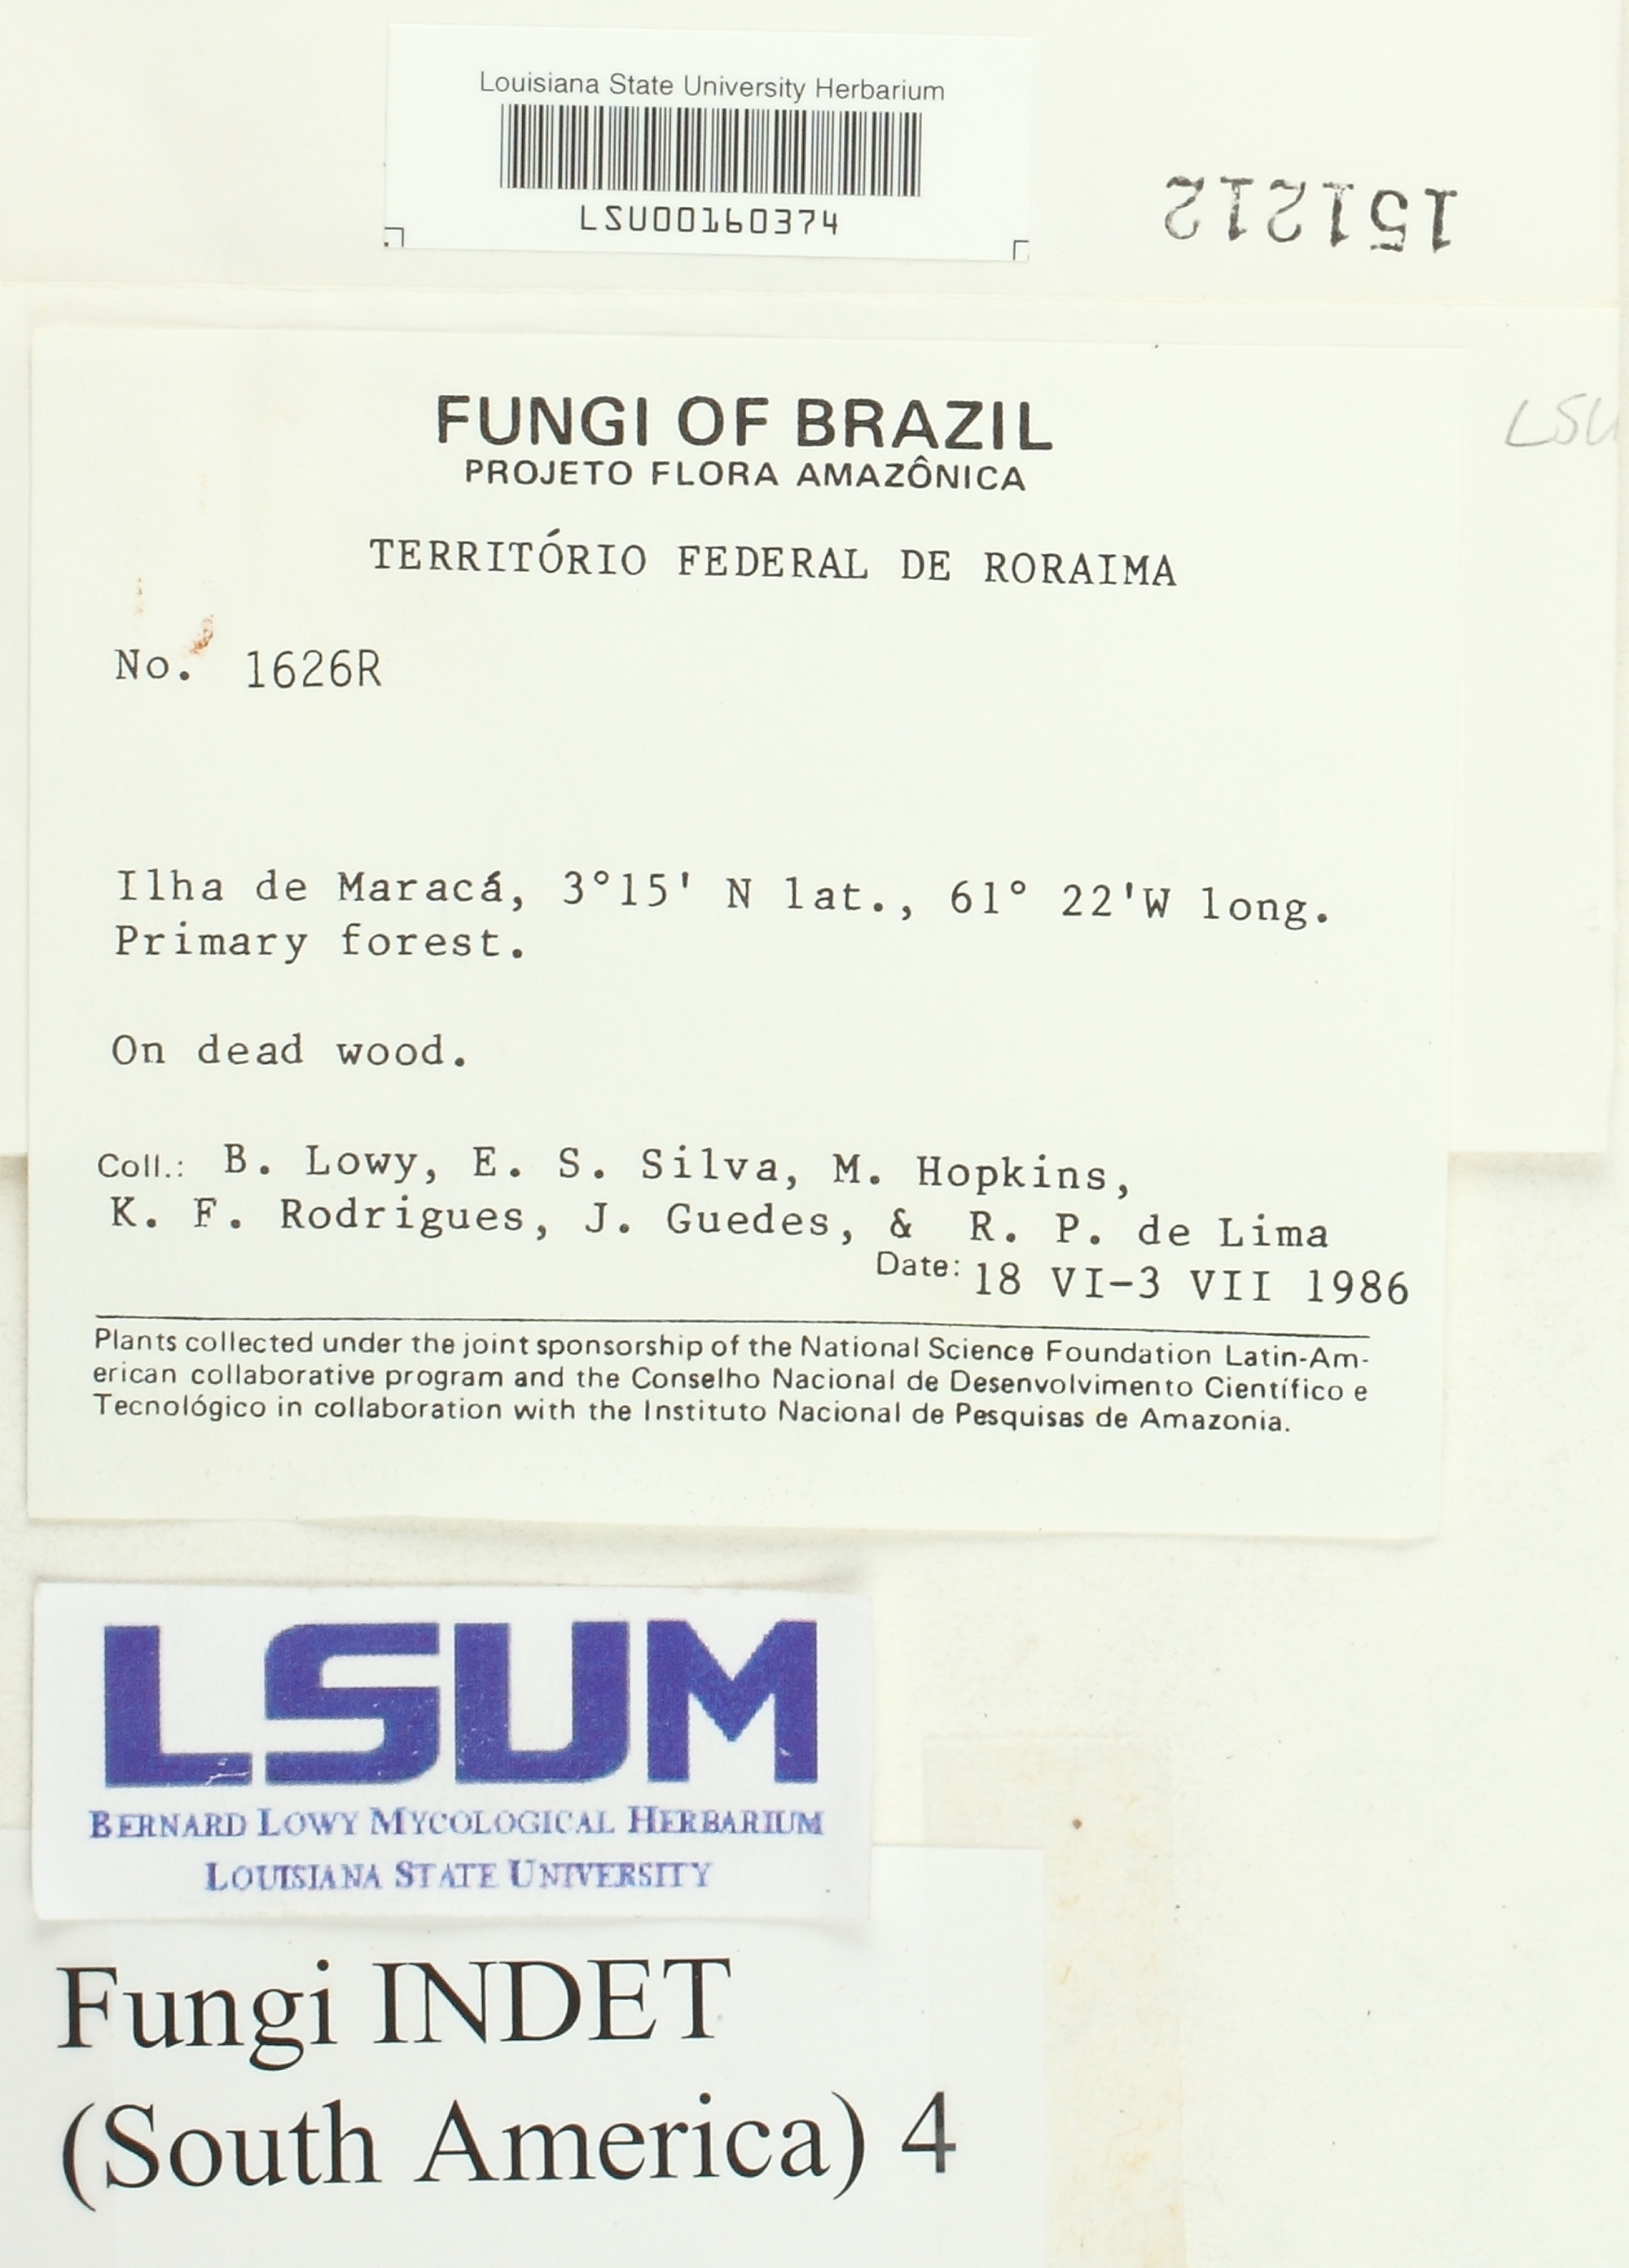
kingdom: Fungi
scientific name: Fungi
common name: Fungi
